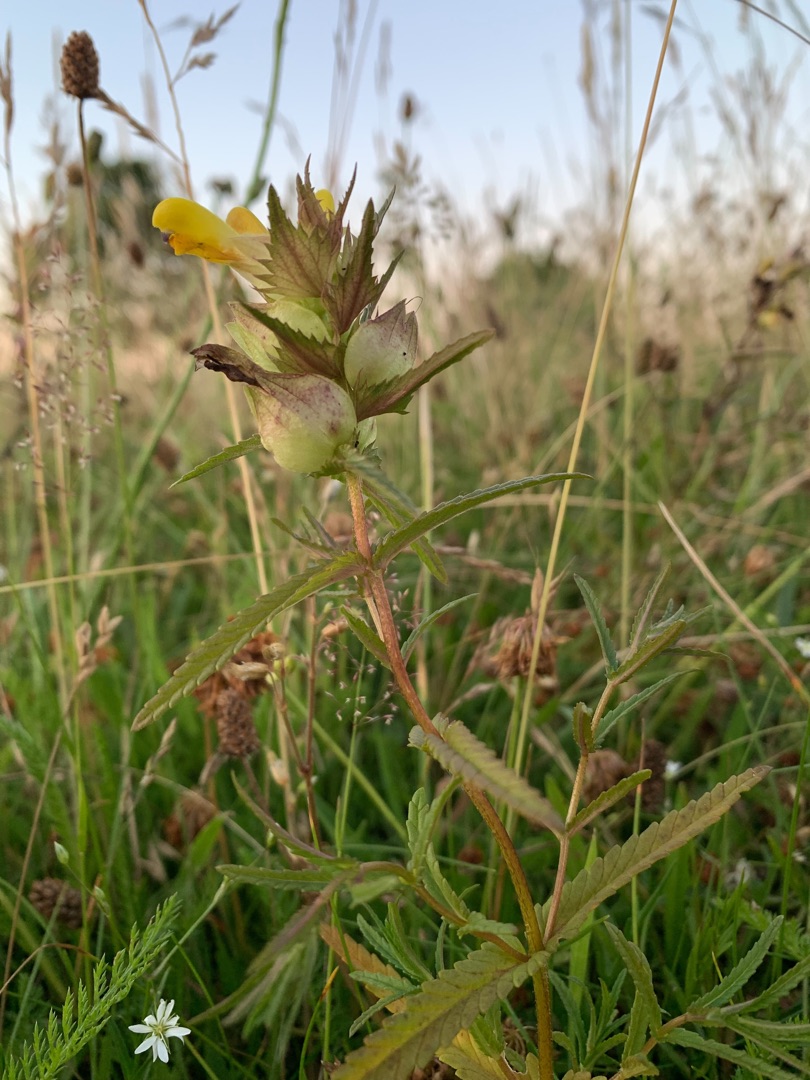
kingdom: Plantae
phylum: Tracheophyta
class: Magnoliopsida
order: Lamiales
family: Orobanchaceae
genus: Rhinanthus
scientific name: Rhinanthus
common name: Stor skjaller
